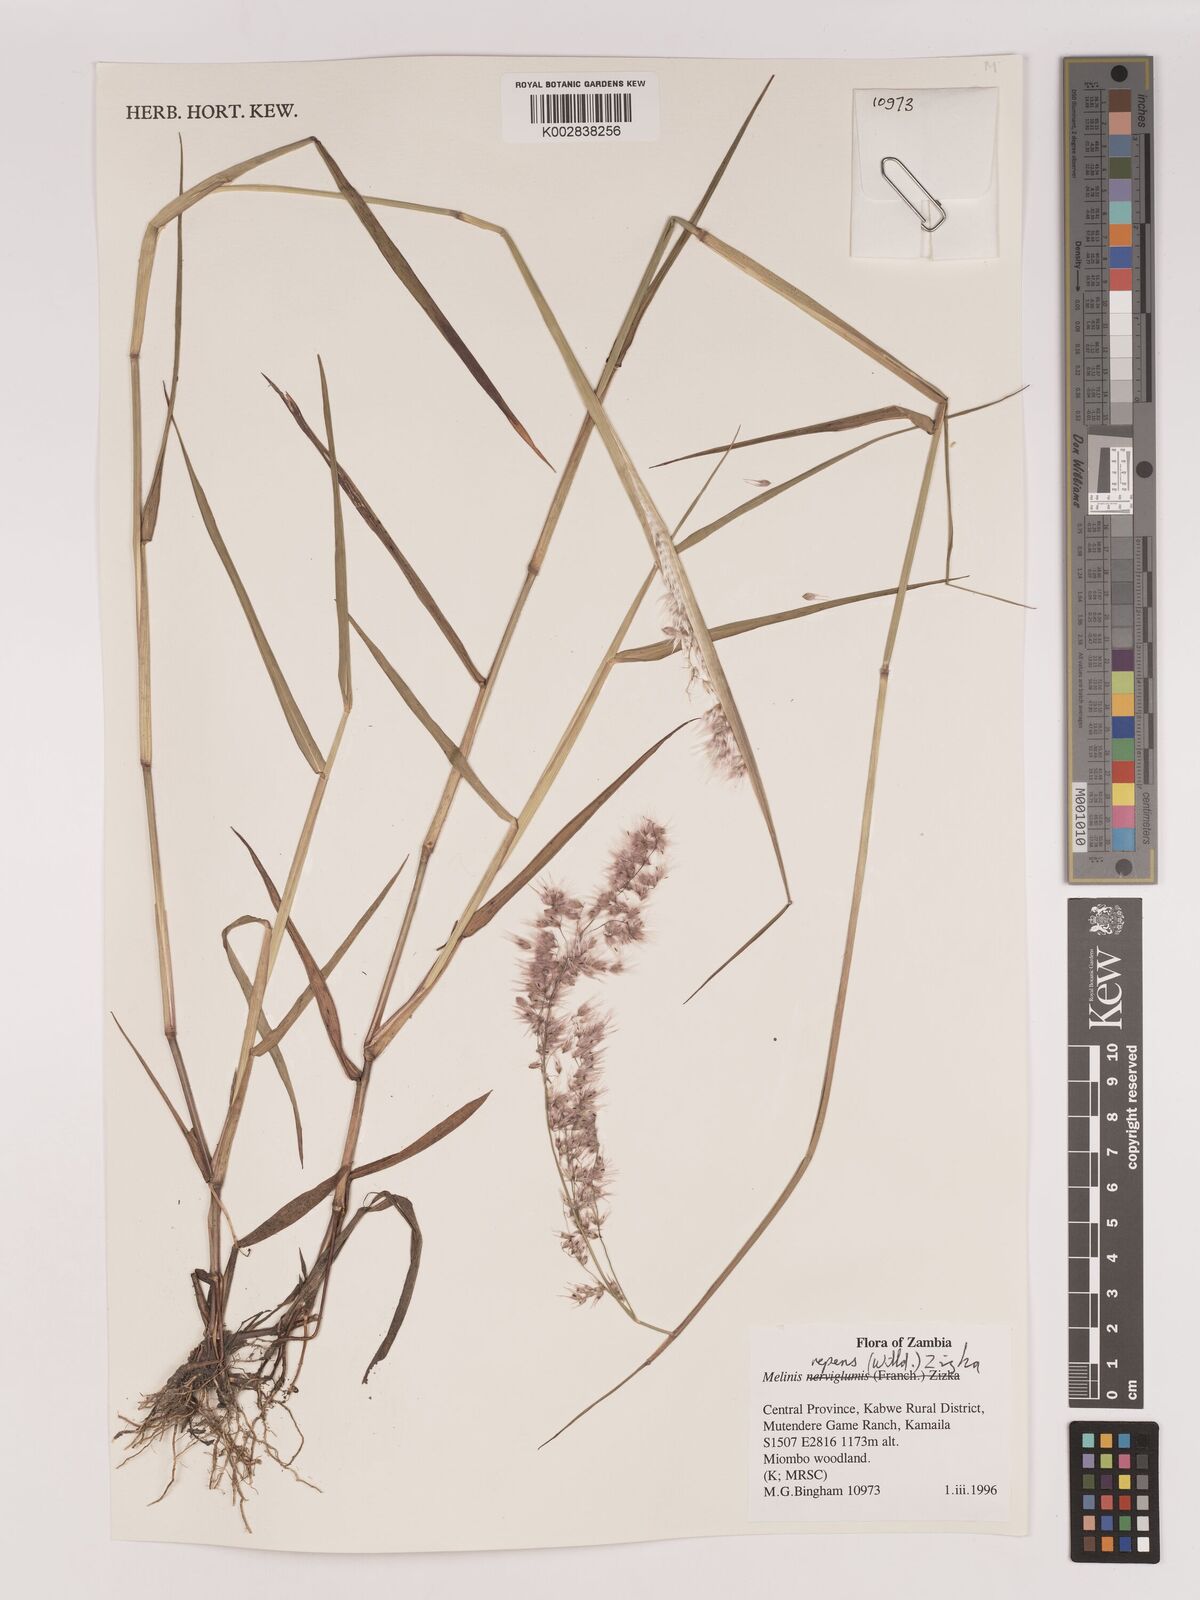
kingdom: Plantae
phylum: Tracheophyta
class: Liliopsida
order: Poales
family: Poaceae
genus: Melinis
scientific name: Melinis repens
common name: Rose natal grass
